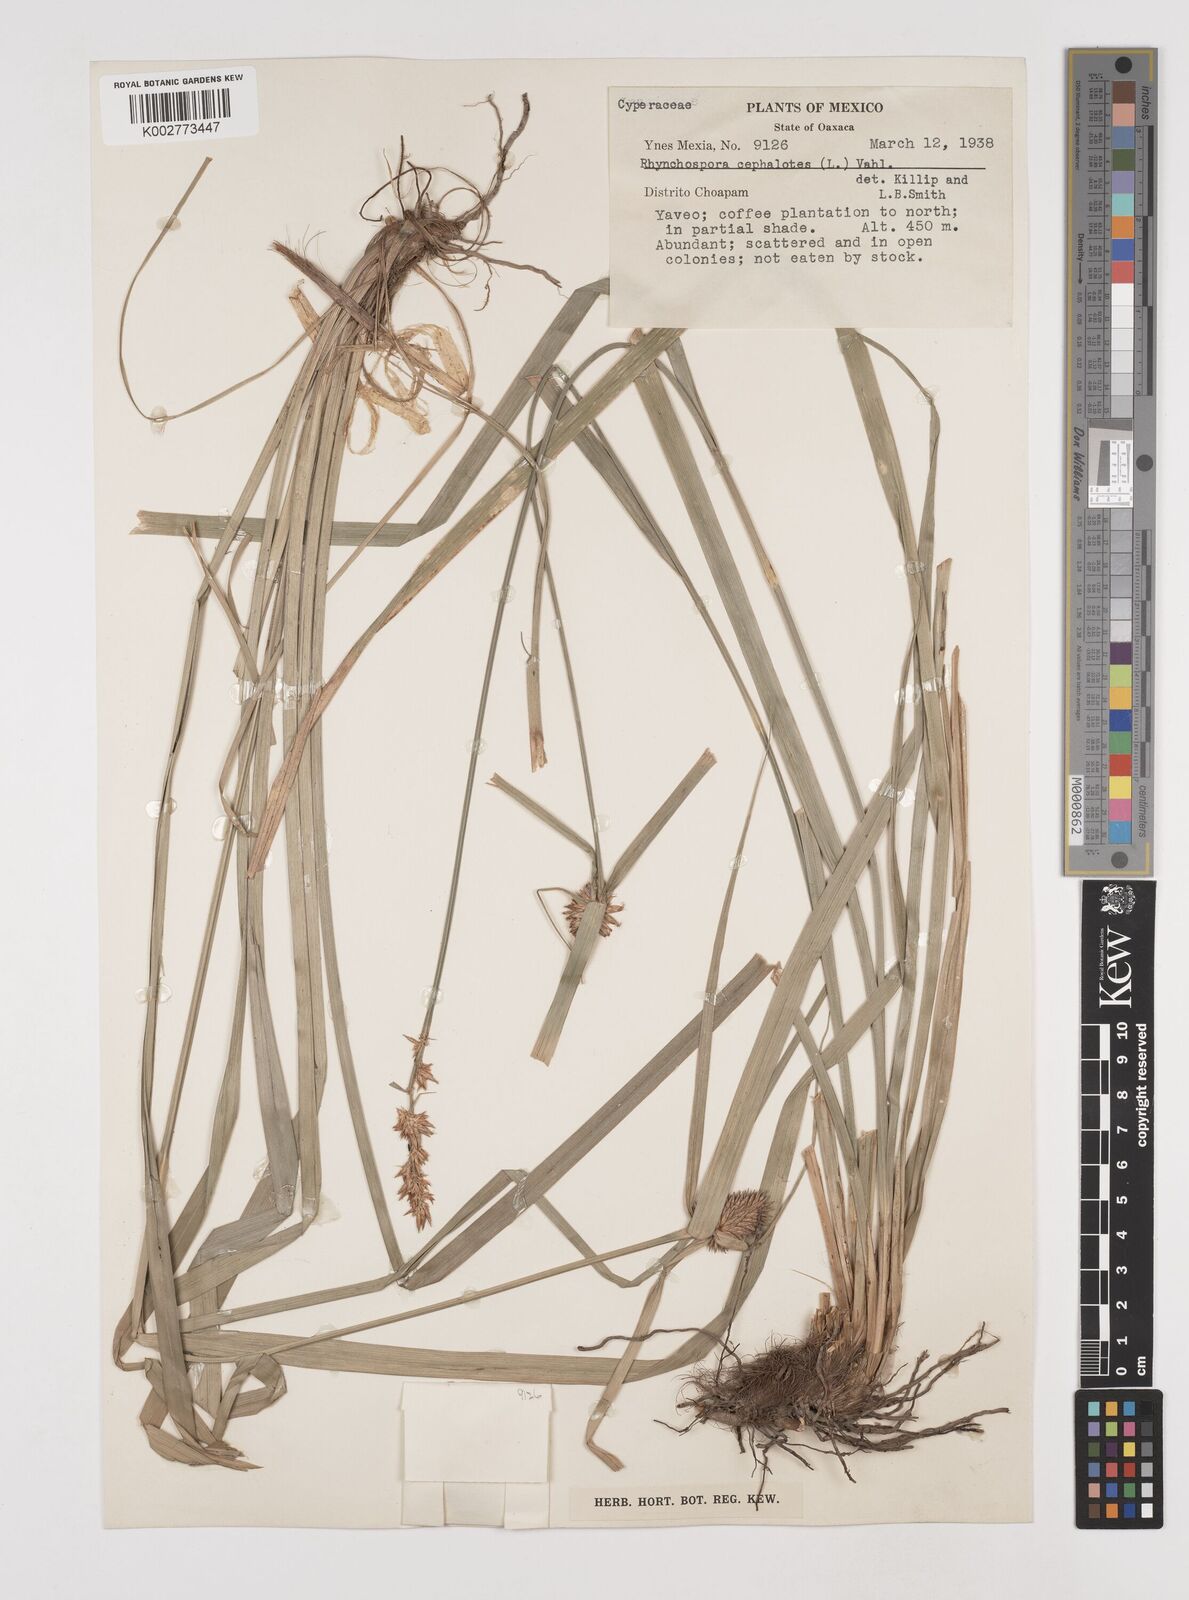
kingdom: Plantae
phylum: Tracheophyta
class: Liliopsida
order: Poales
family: Cyperaceae
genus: Rhynchospora
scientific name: Rhynchospora cephalotes
